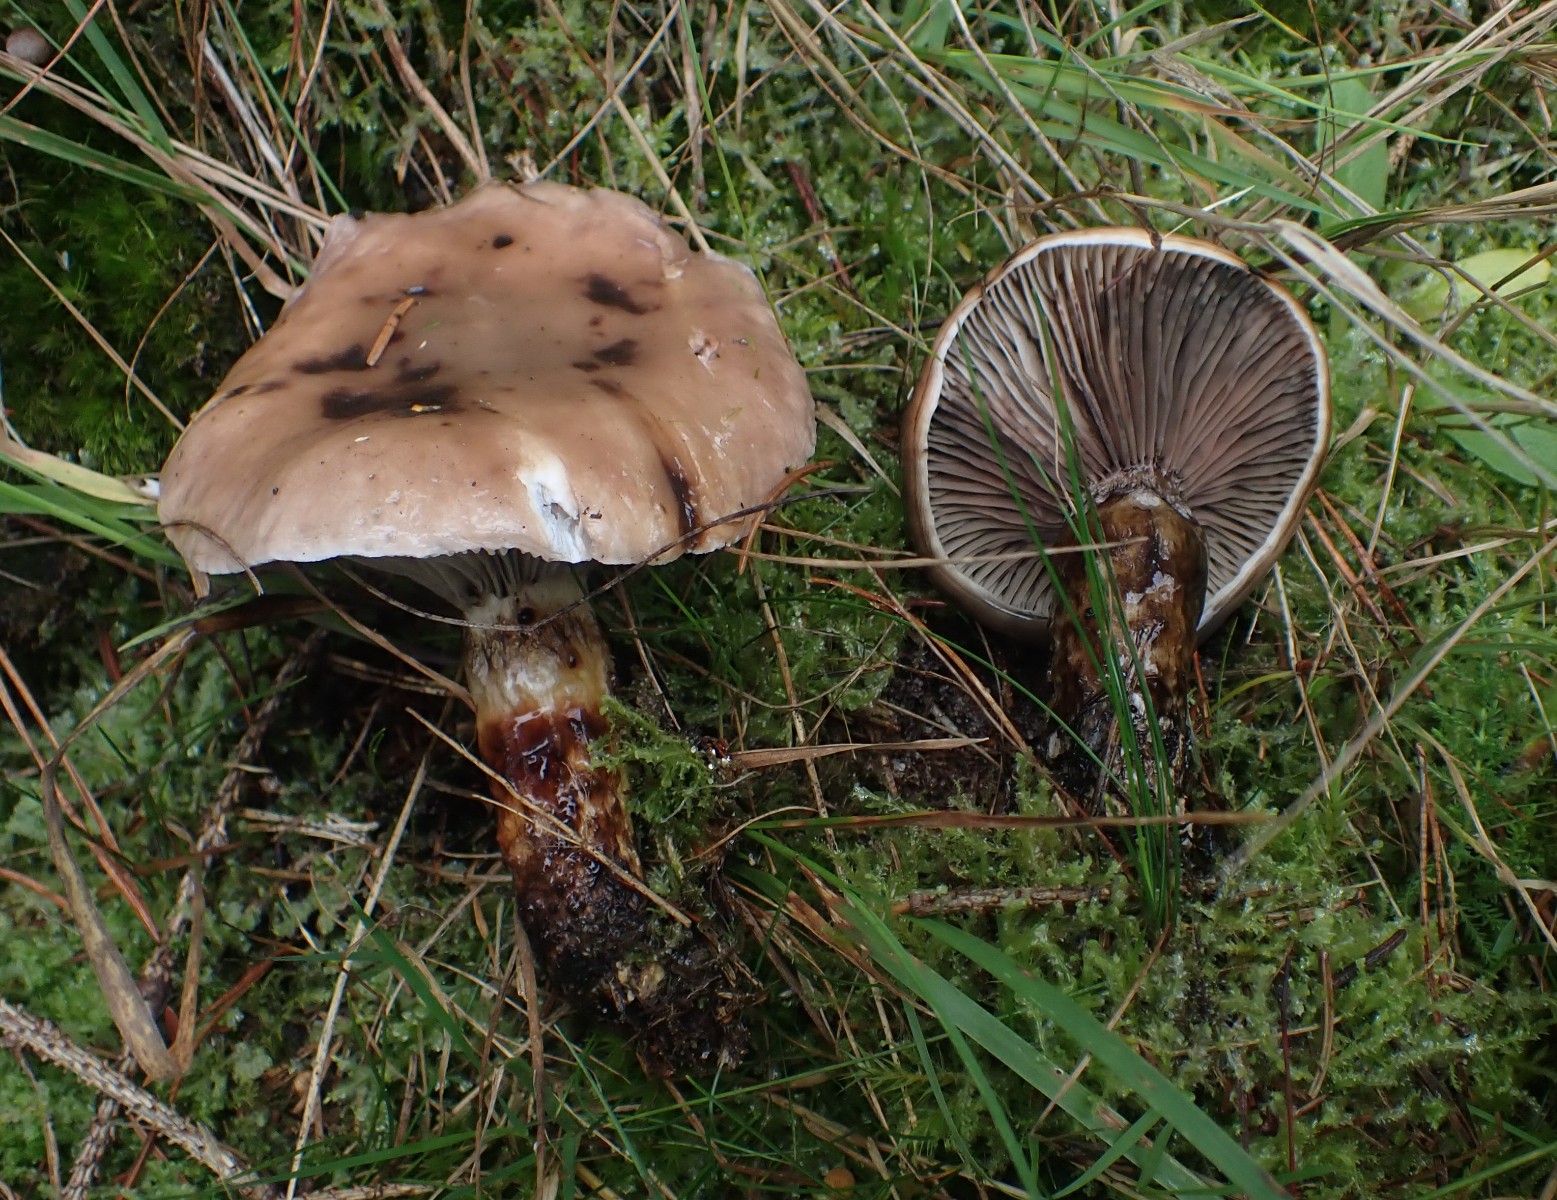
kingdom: Fungi
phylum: Basidiomycota
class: Agaricomycetes
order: Boletales
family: Gomphidiaceae
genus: Gomphidius
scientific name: Gomphidius glutinosus
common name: grå slimslør
